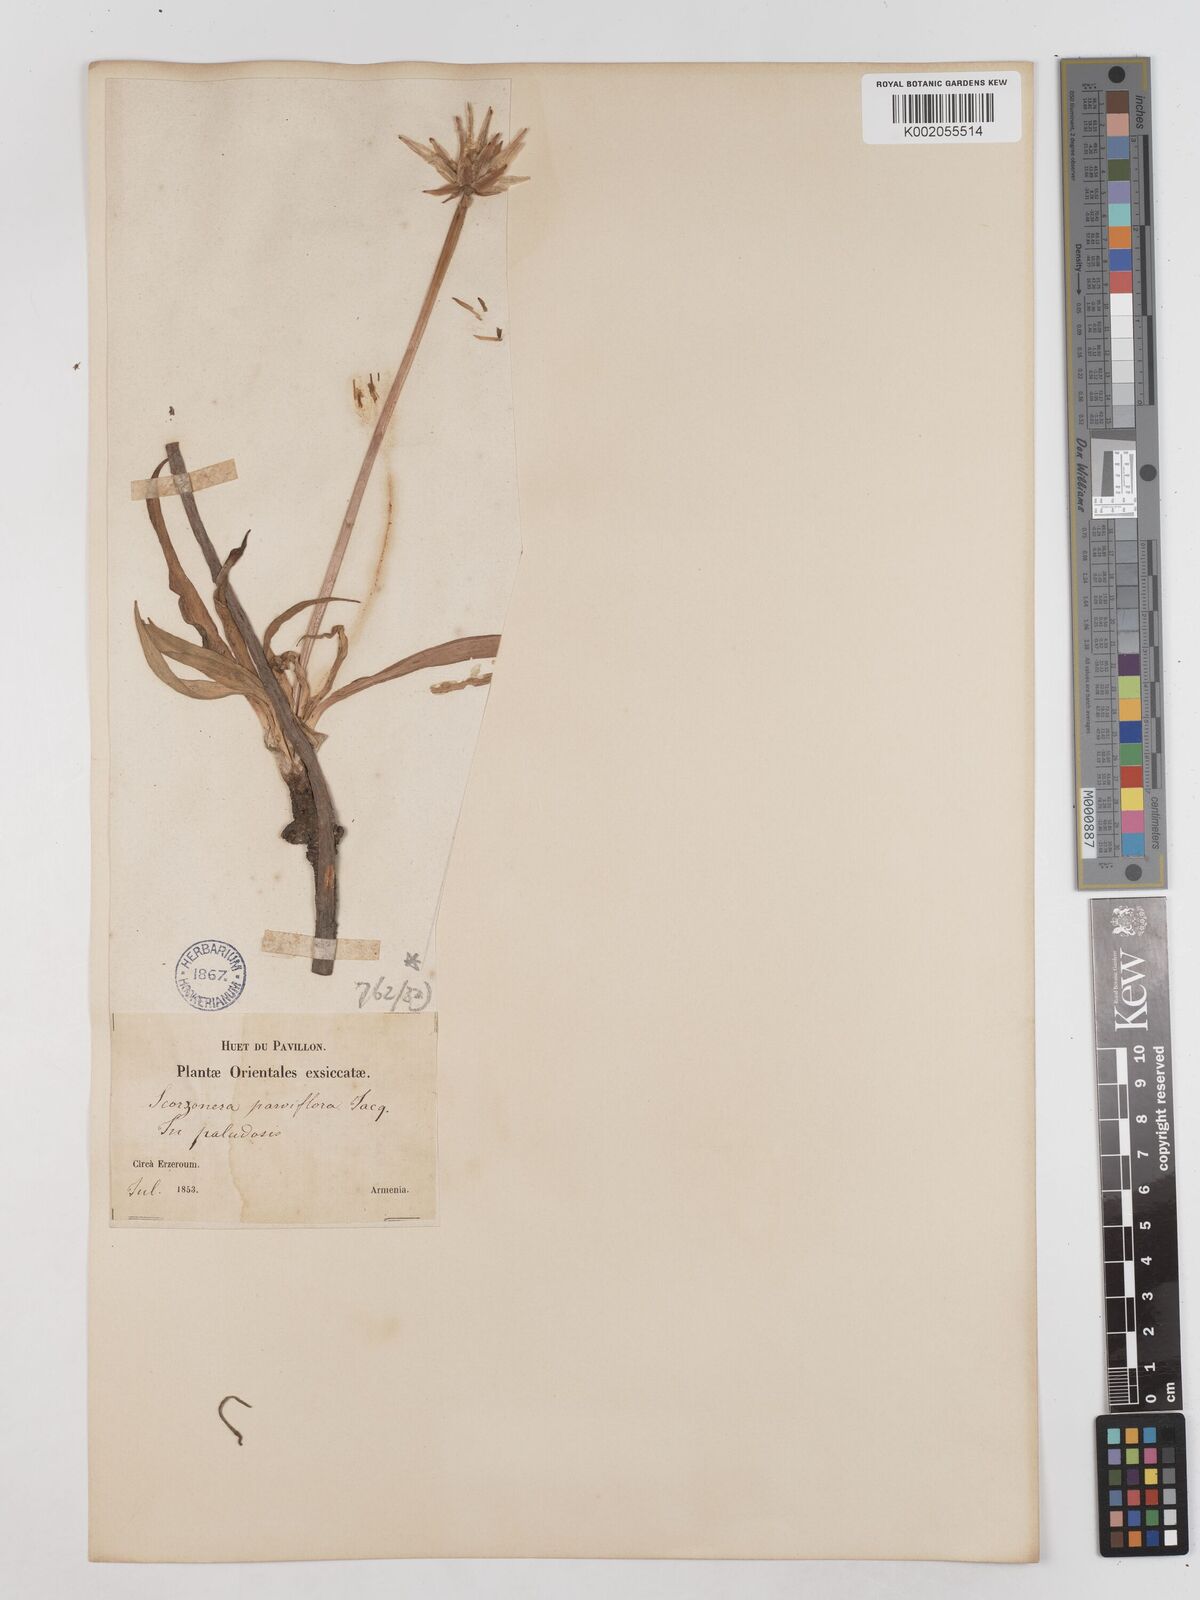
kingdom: Plantae
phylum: Tracheophyta
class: Magnoliopsida
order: Asterales
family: Asteraceae
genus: Scorzonera
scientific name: Scorzonera parviflora
